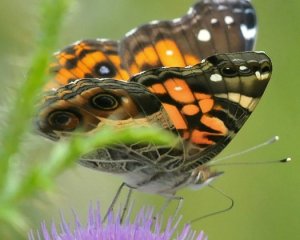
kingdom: Animalia
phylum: Arthropoda
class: Insecta
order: Lepidoptera
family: Nymphalidae
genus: Vanessa
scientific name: Vanessa virginiensis
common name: American Lady
